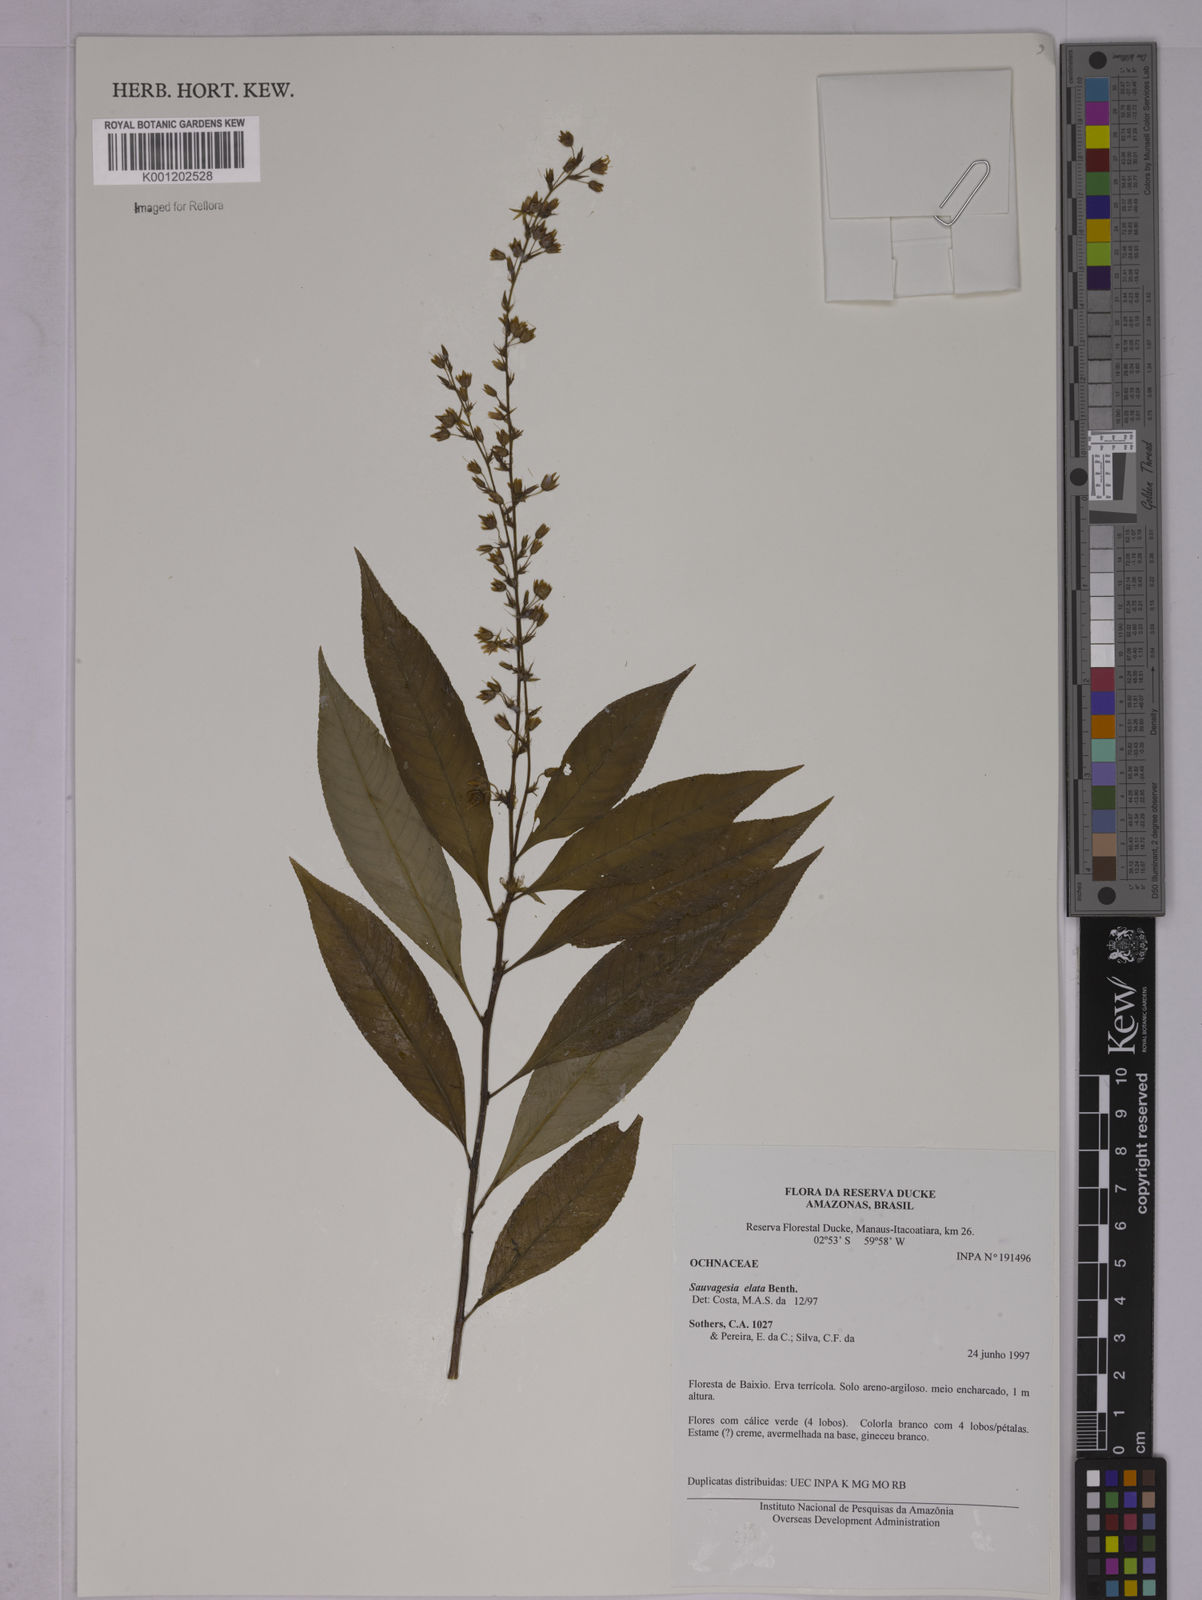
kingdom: Plantae
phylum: Tracheophyta
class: Magnoliopsida
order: Malpighiales
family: Ochnaceae
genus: Sauvagesia
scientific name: Sauvagesia elata
